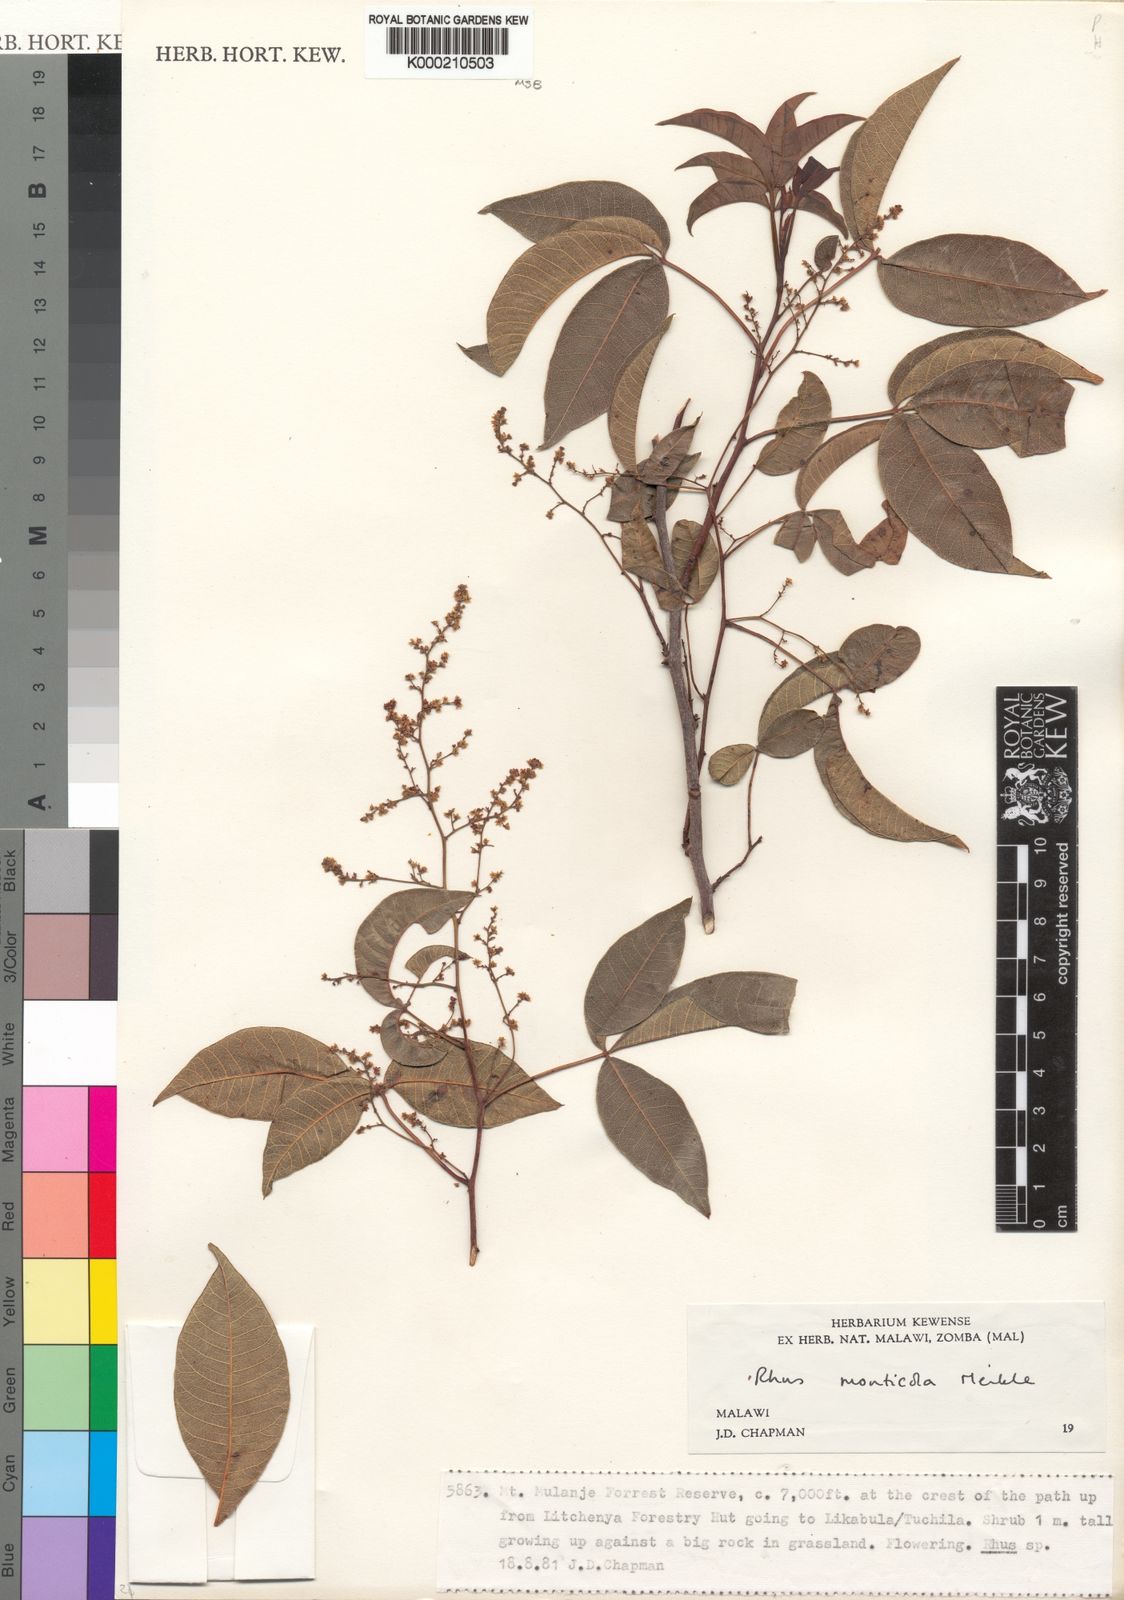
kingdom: Plantae
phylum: Tracheophyta
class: Magnoliopsida
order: Sapindales
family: Anacardiaceae
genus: Searsia
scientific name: Searsia monticola
